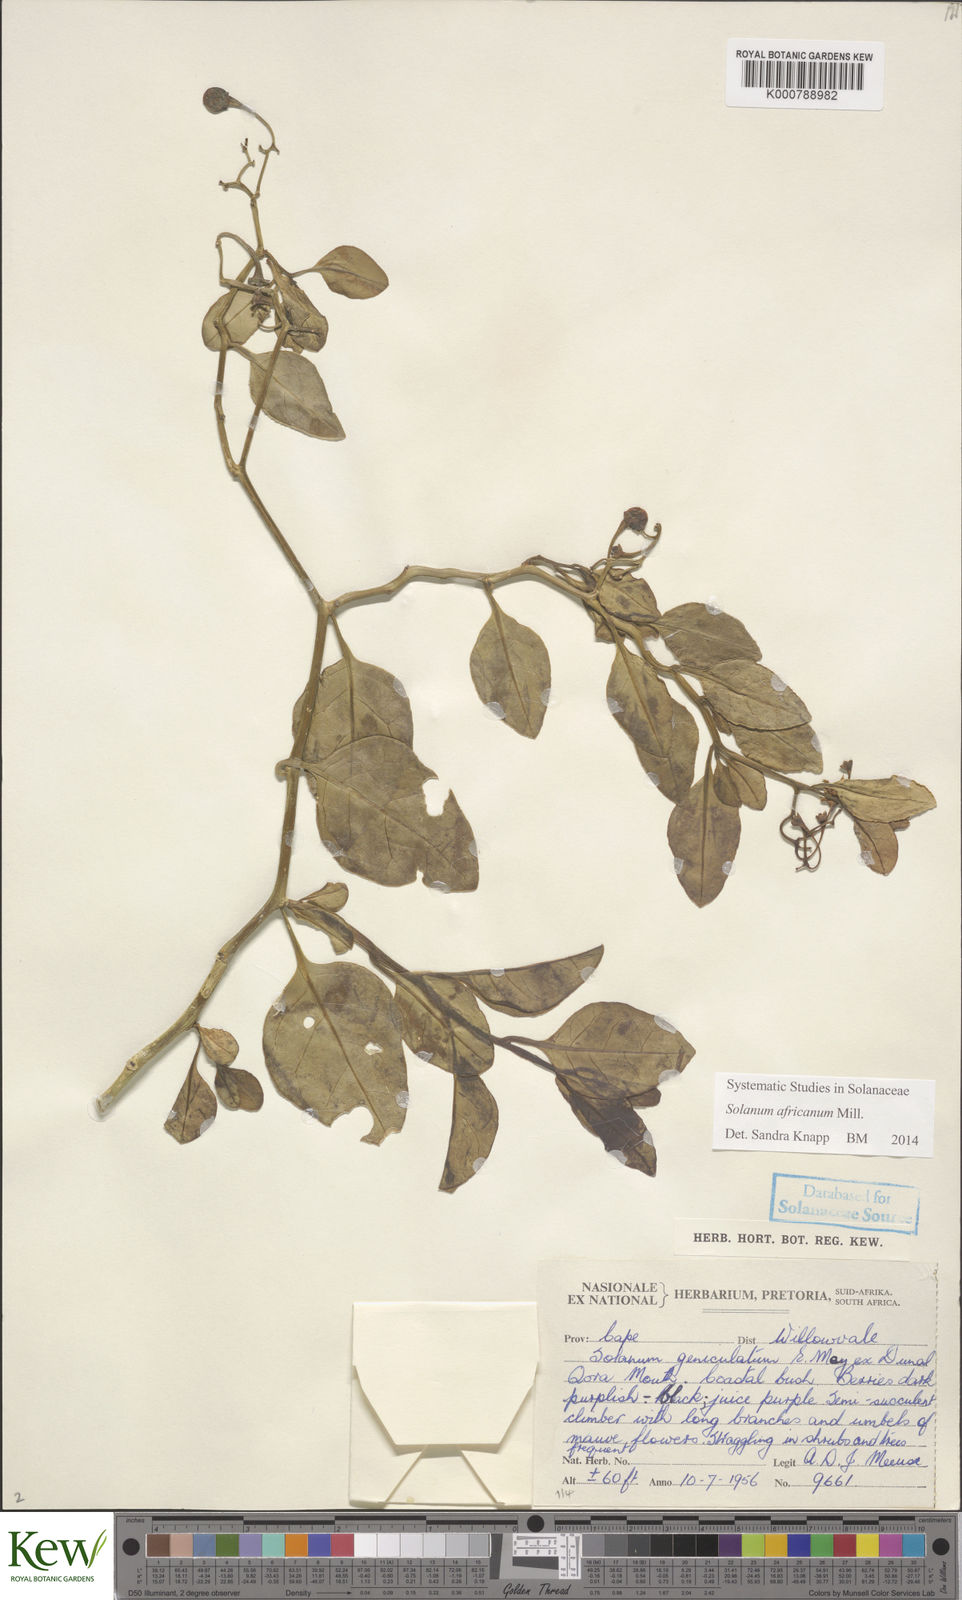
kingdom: Plantae
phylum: Tracheophyta
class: Magnoliopsida
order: Solanales
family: Solanaceae
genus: Solanum
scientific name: Solanum africanum
